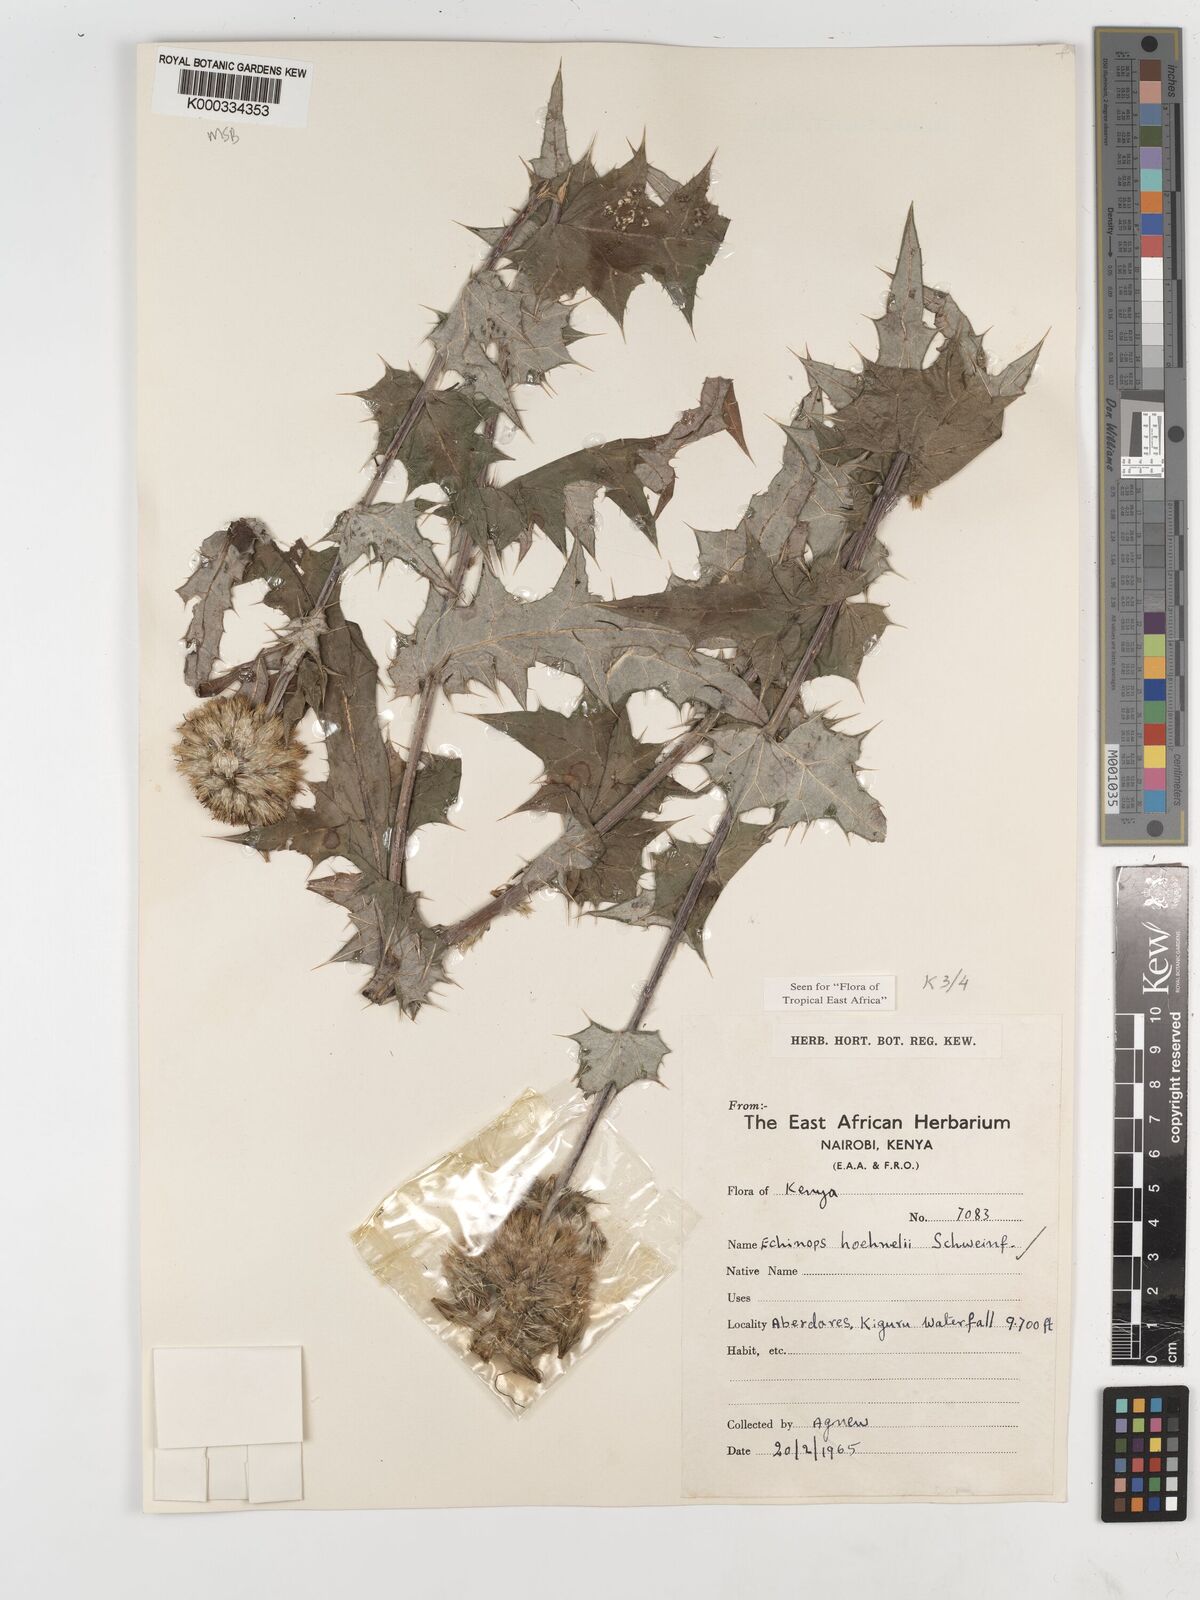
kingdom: Plantae
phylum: Tracheophyta
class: Magnoliopsida
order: Asterales
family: Asteraceae
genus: Echinops
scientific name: Echinops hoehnelii
